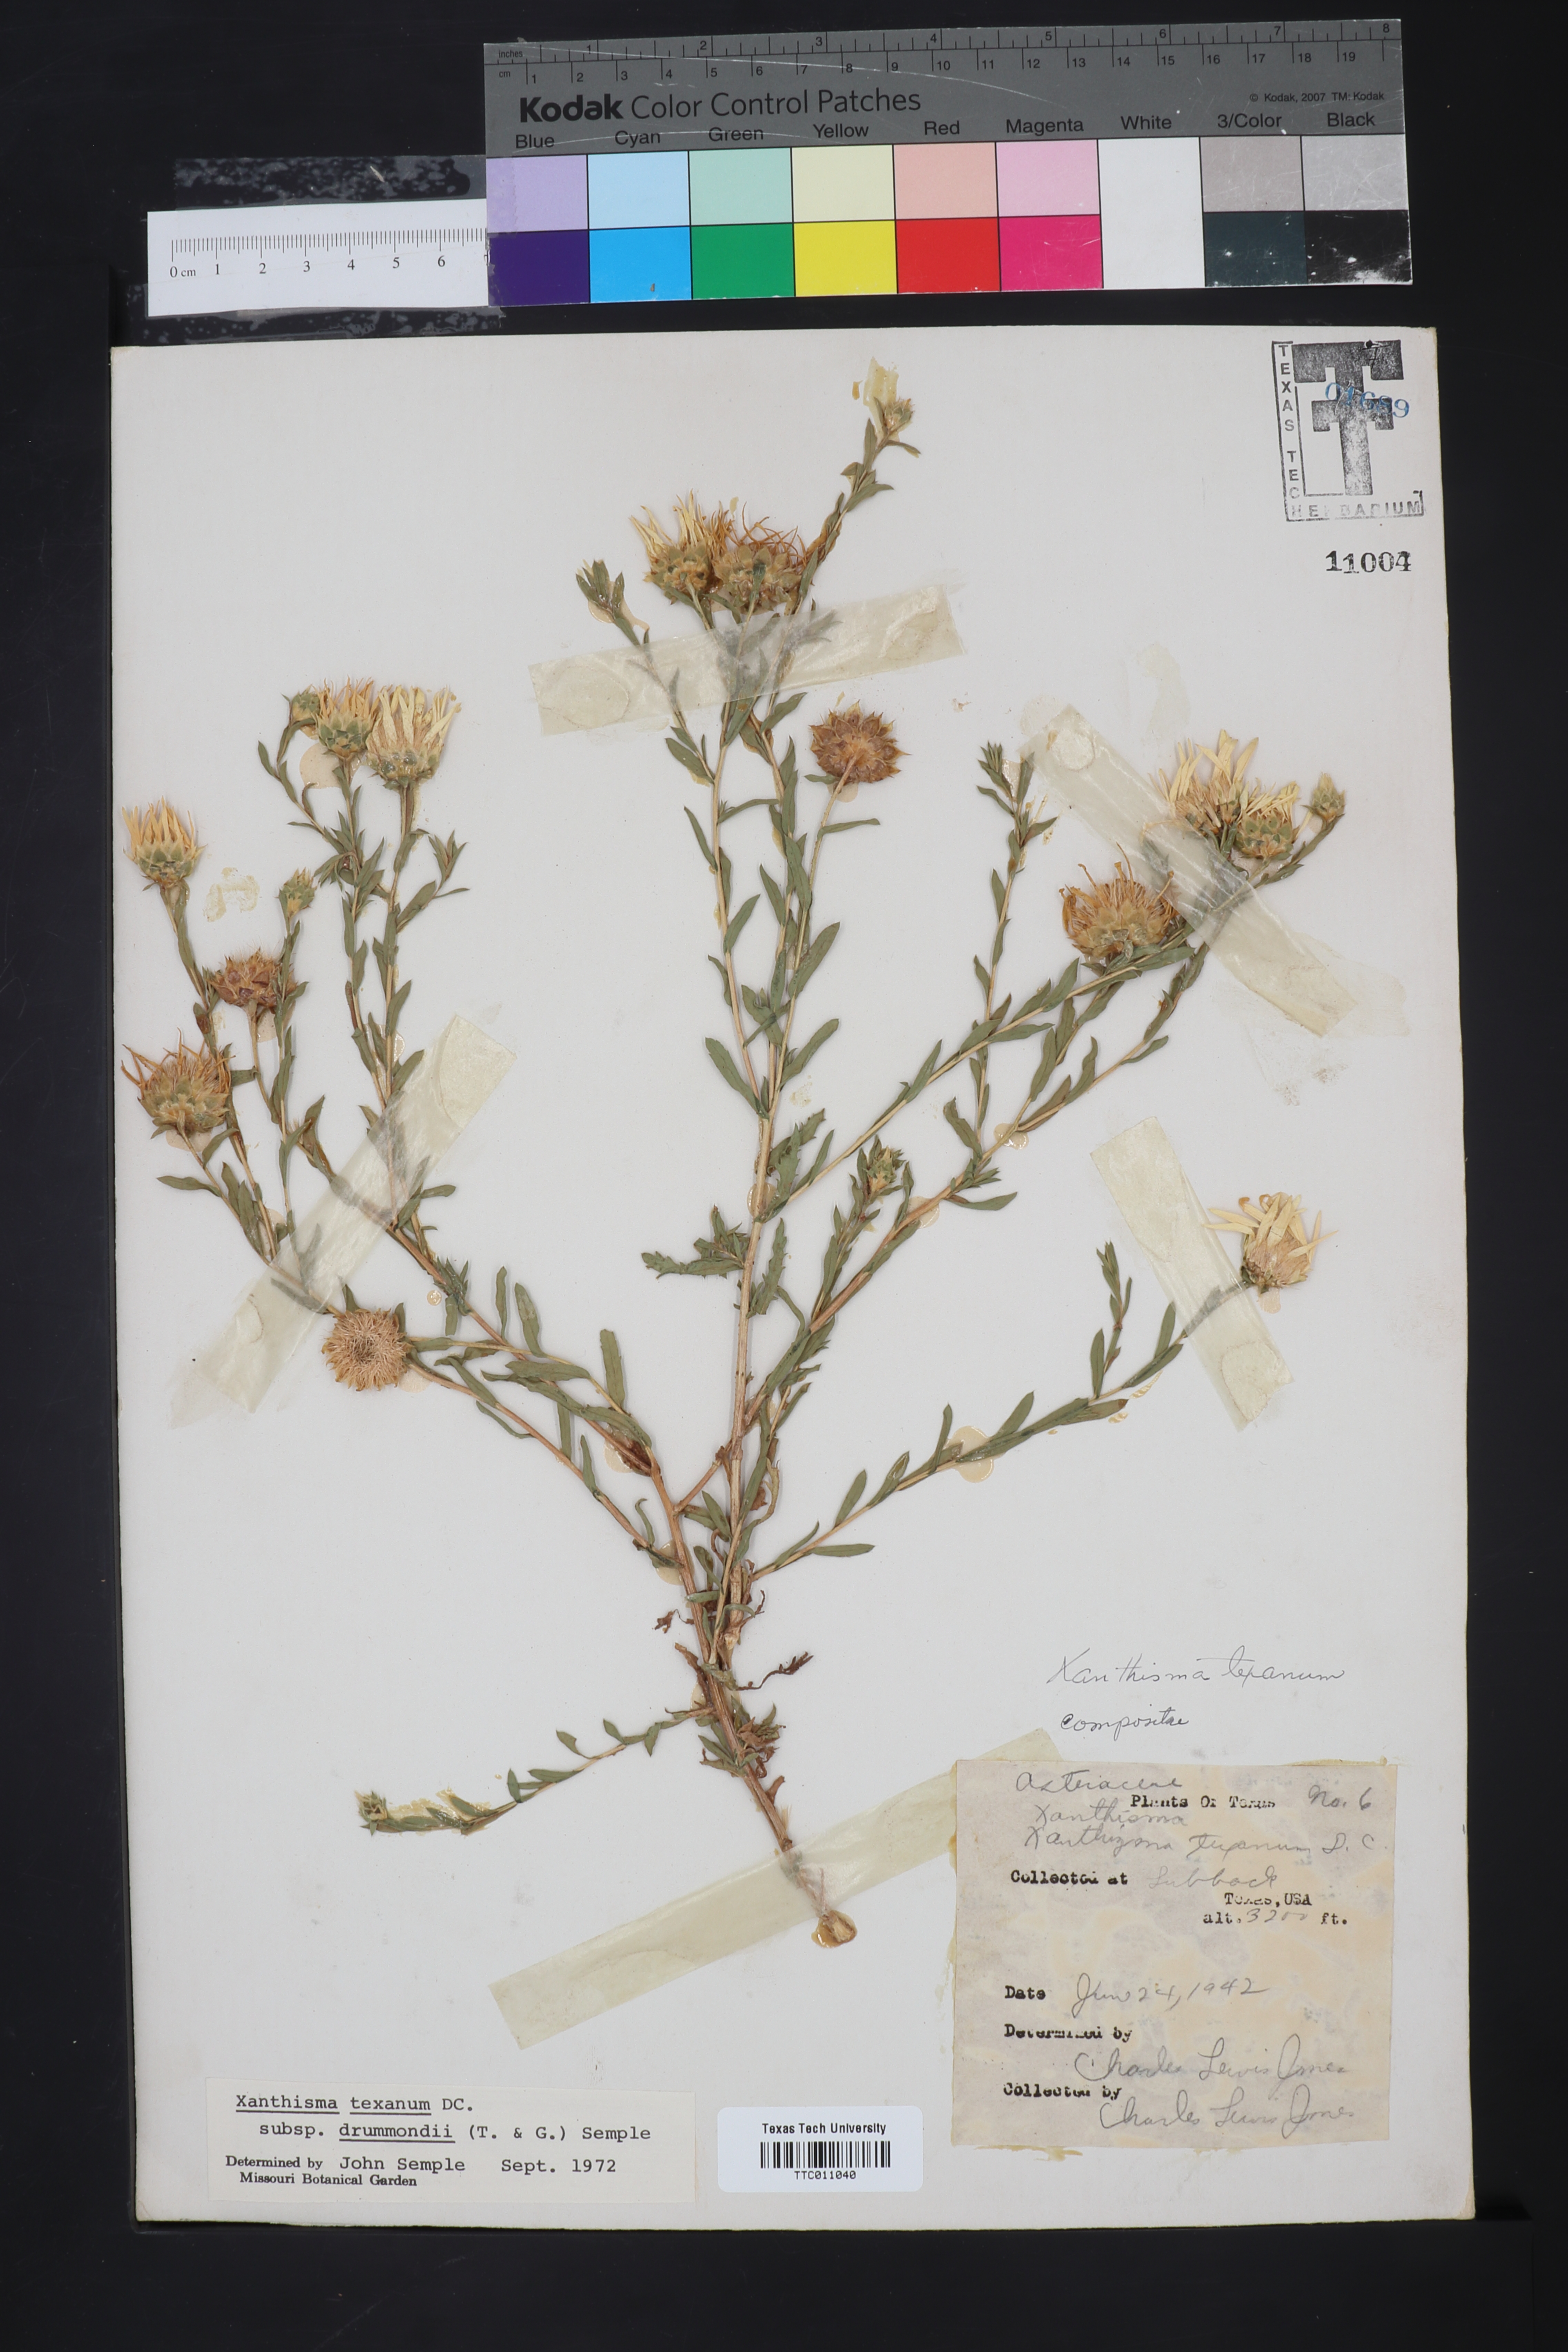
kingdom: Plantae
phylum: Tracheophyta
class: Magnoliopsida
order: Asterales
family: Asteraceae
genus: Xanthisma
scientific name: Xanthisma texanum
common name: Texas sleepy daisy
